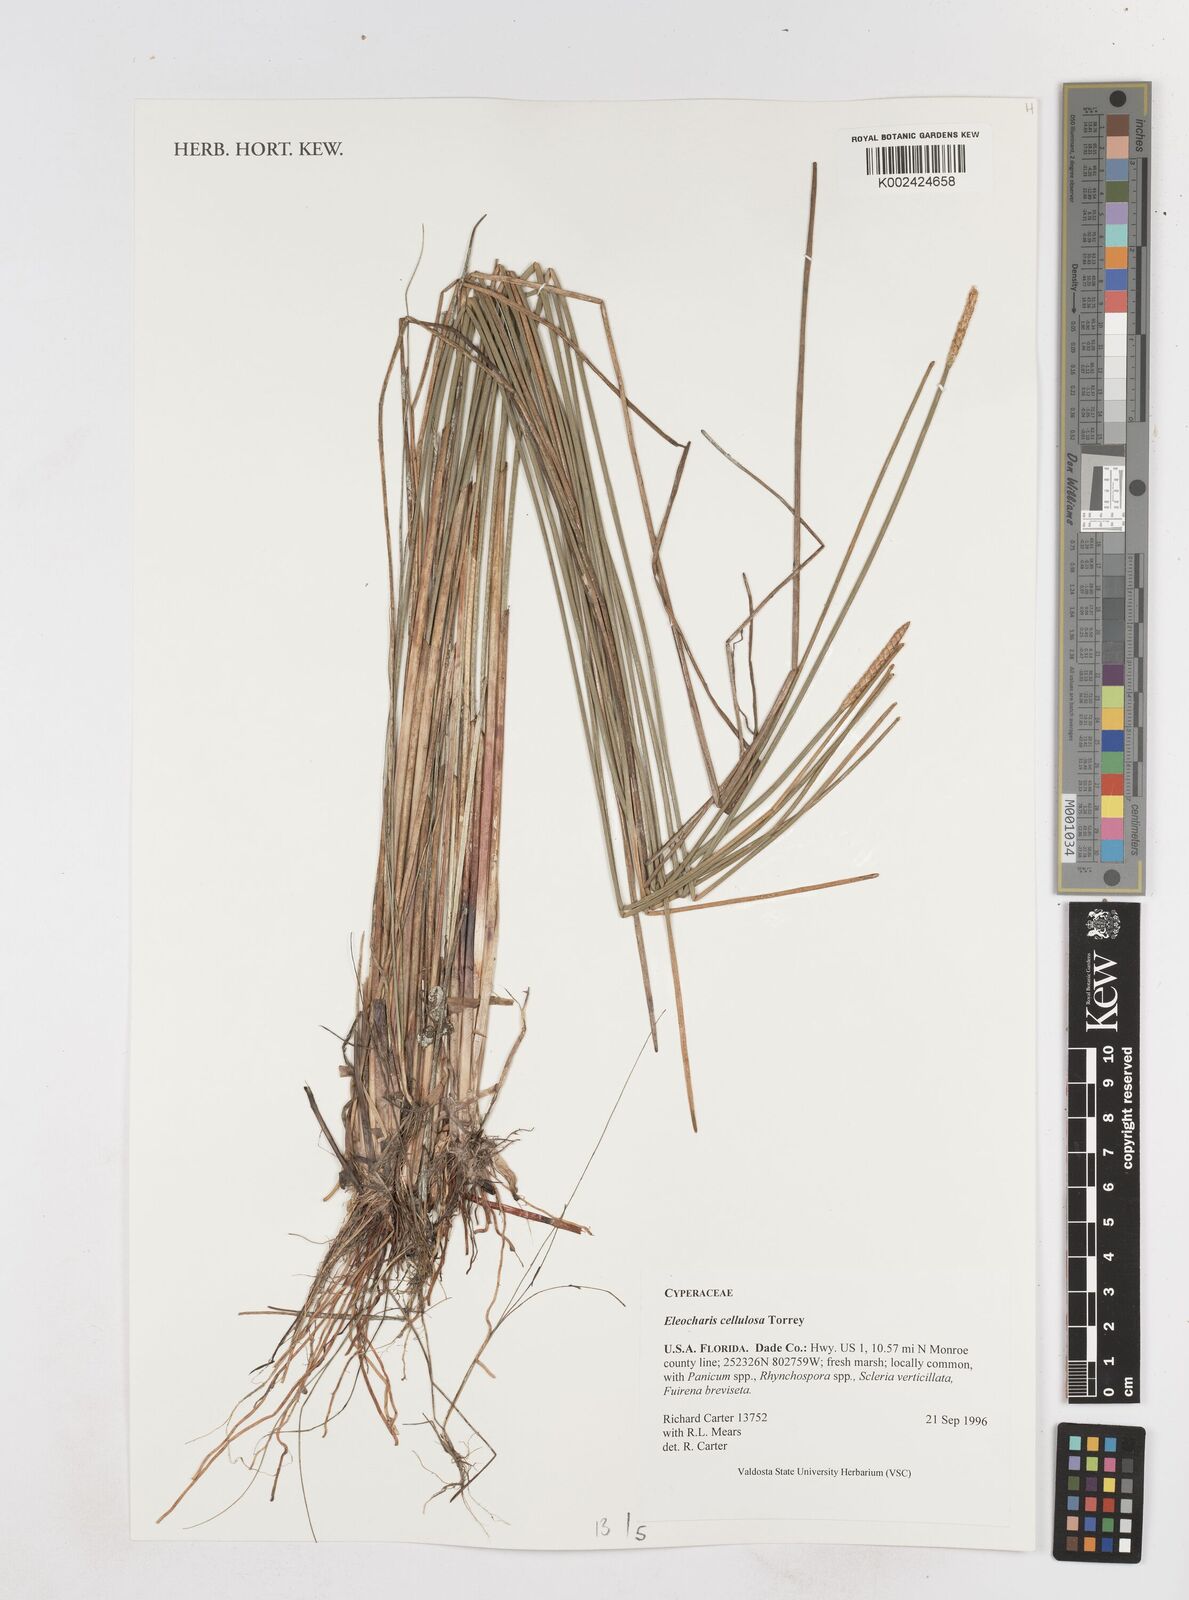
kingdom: Plantae
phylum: Tracheophyta
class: Liliopsida
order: Poales
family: Cyperaceae
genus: Eleocharis
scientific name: Eleocharis cellulosa
